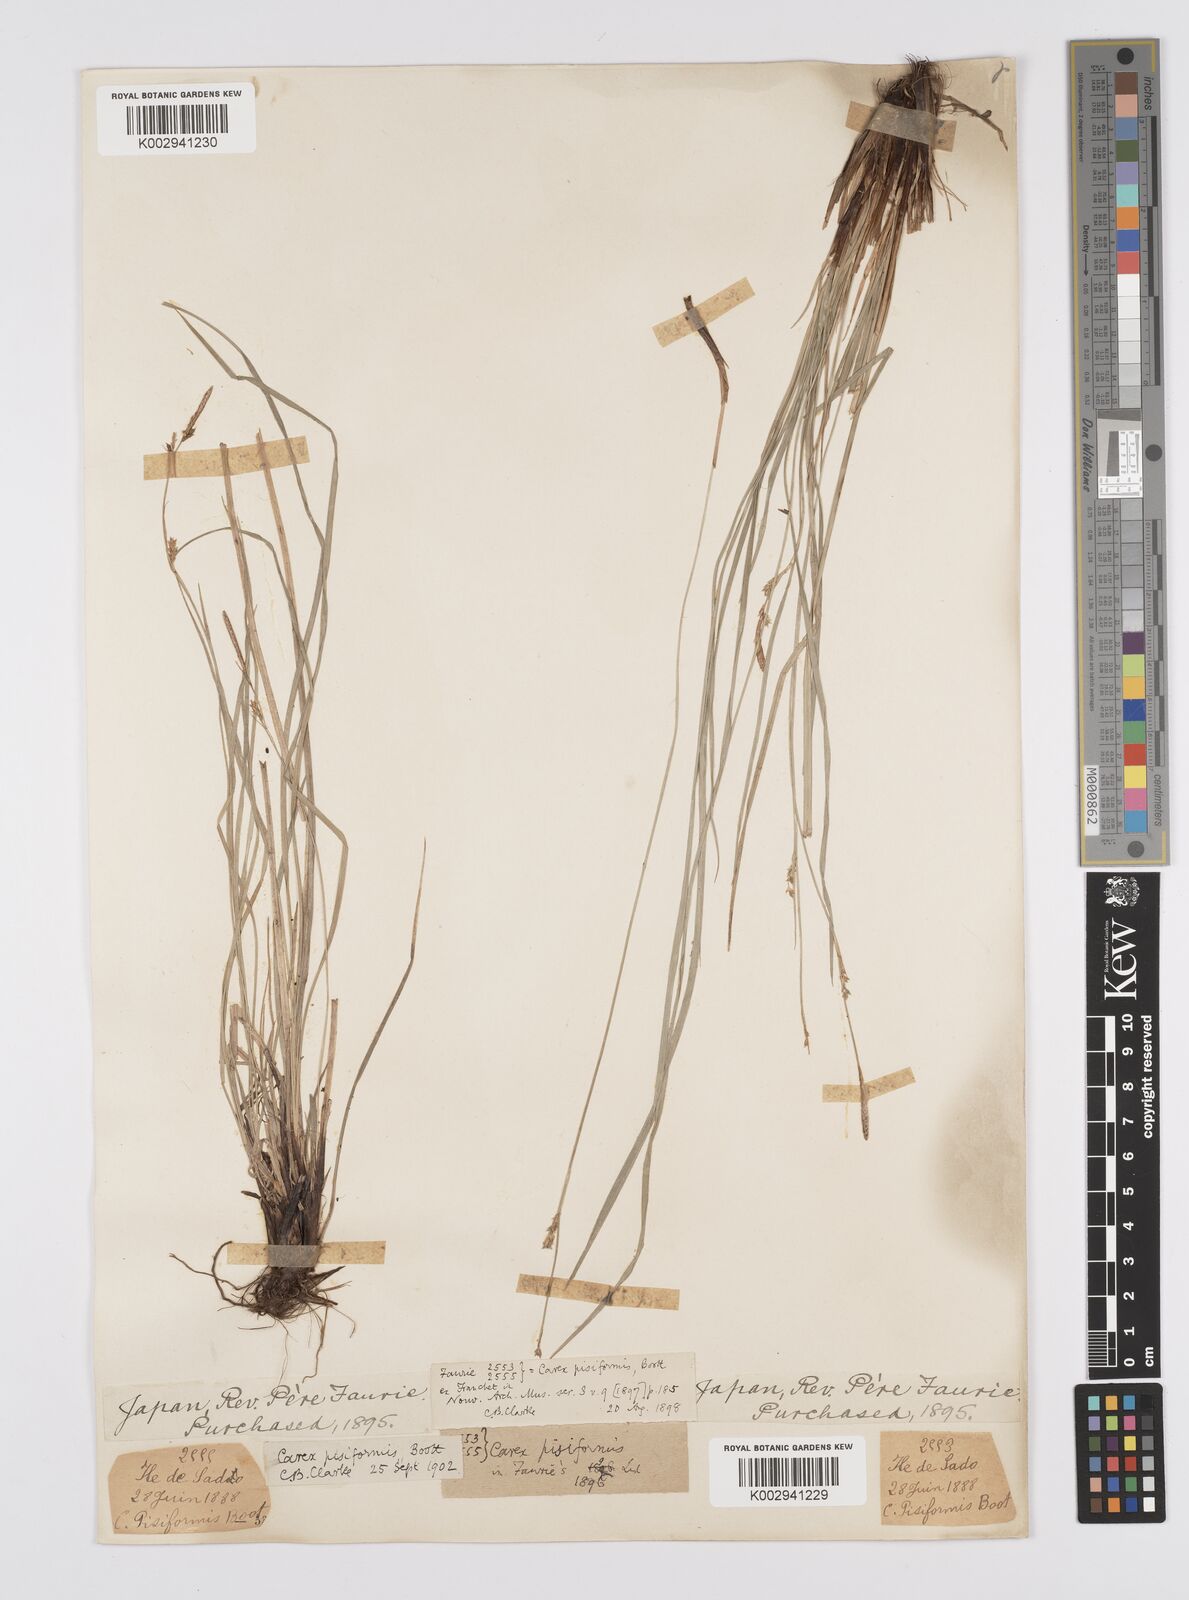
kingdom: Plantae
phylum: Tracheophyta
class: Liliopsida
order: Poales
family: Cyperaceae
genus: Carex
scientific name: Carex pisiformis
